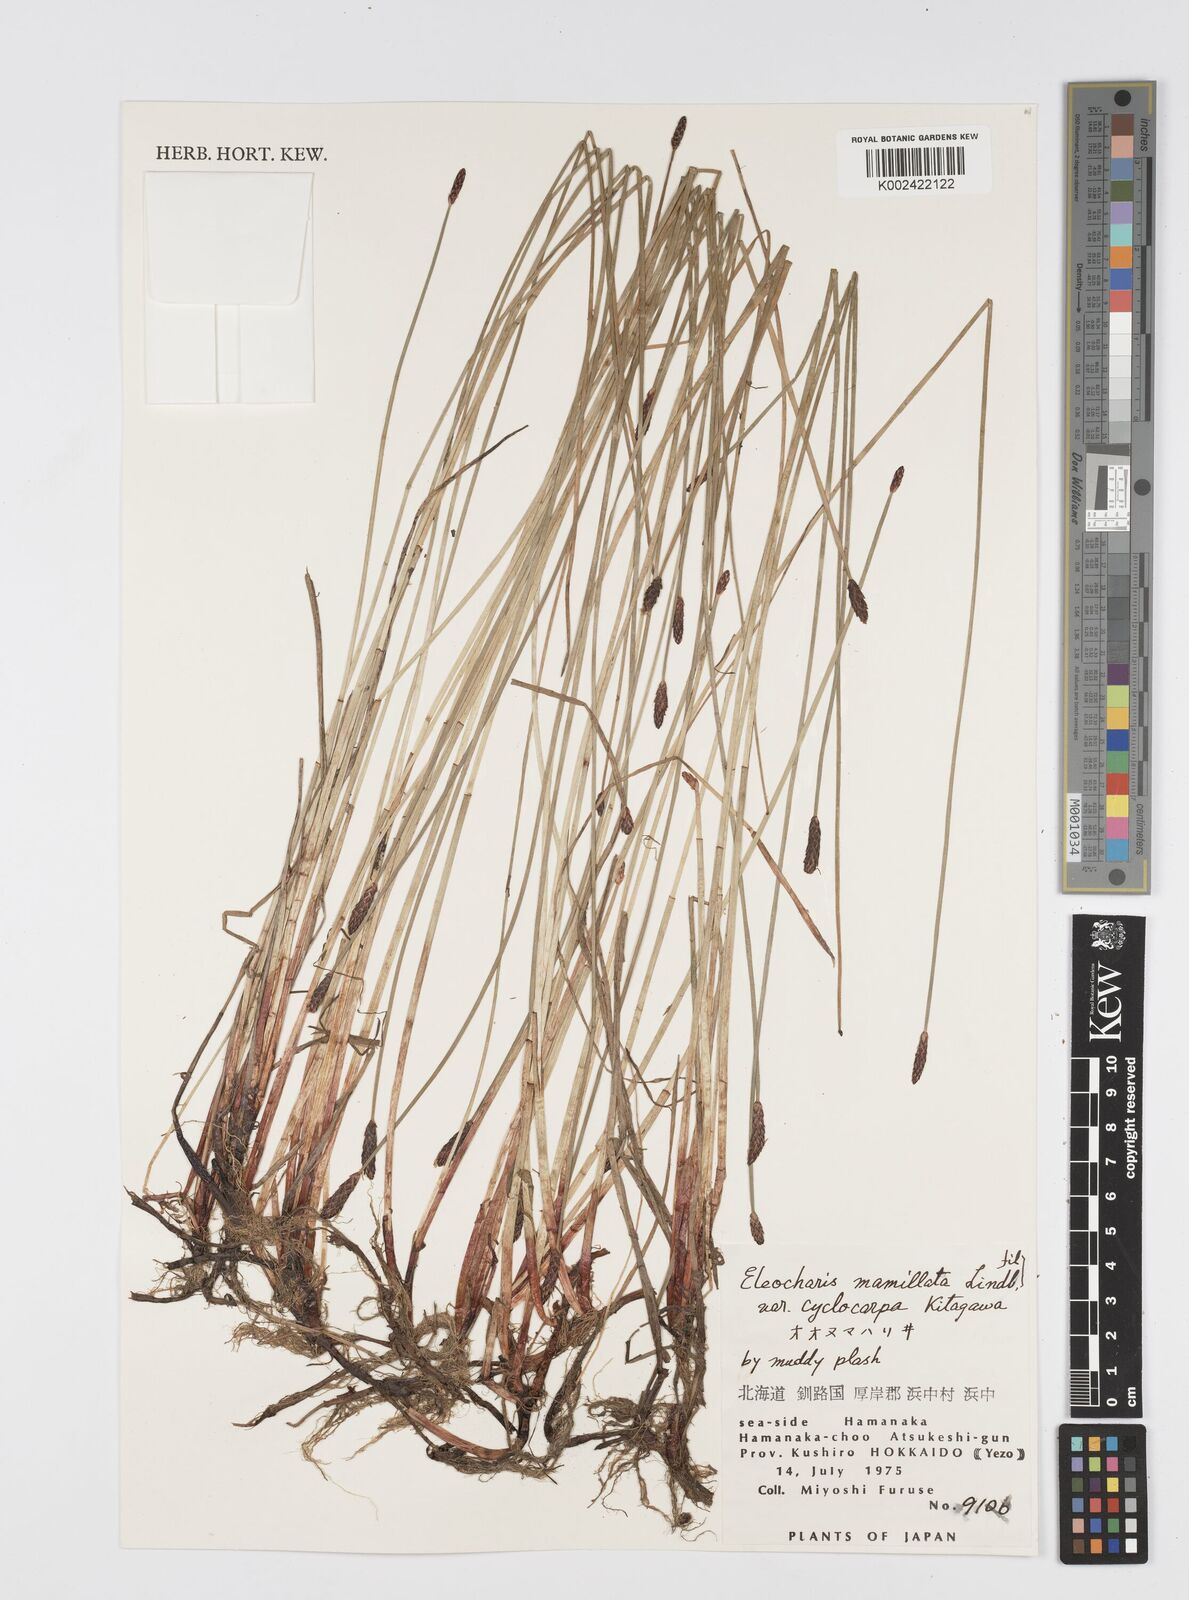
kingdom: Plantae
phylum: Tracheophyta
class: Liliopsida
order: Poales
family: Cyperaceae
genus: Eleocharis
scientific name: Eleocharis mamillata
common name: Northern spike-rush
